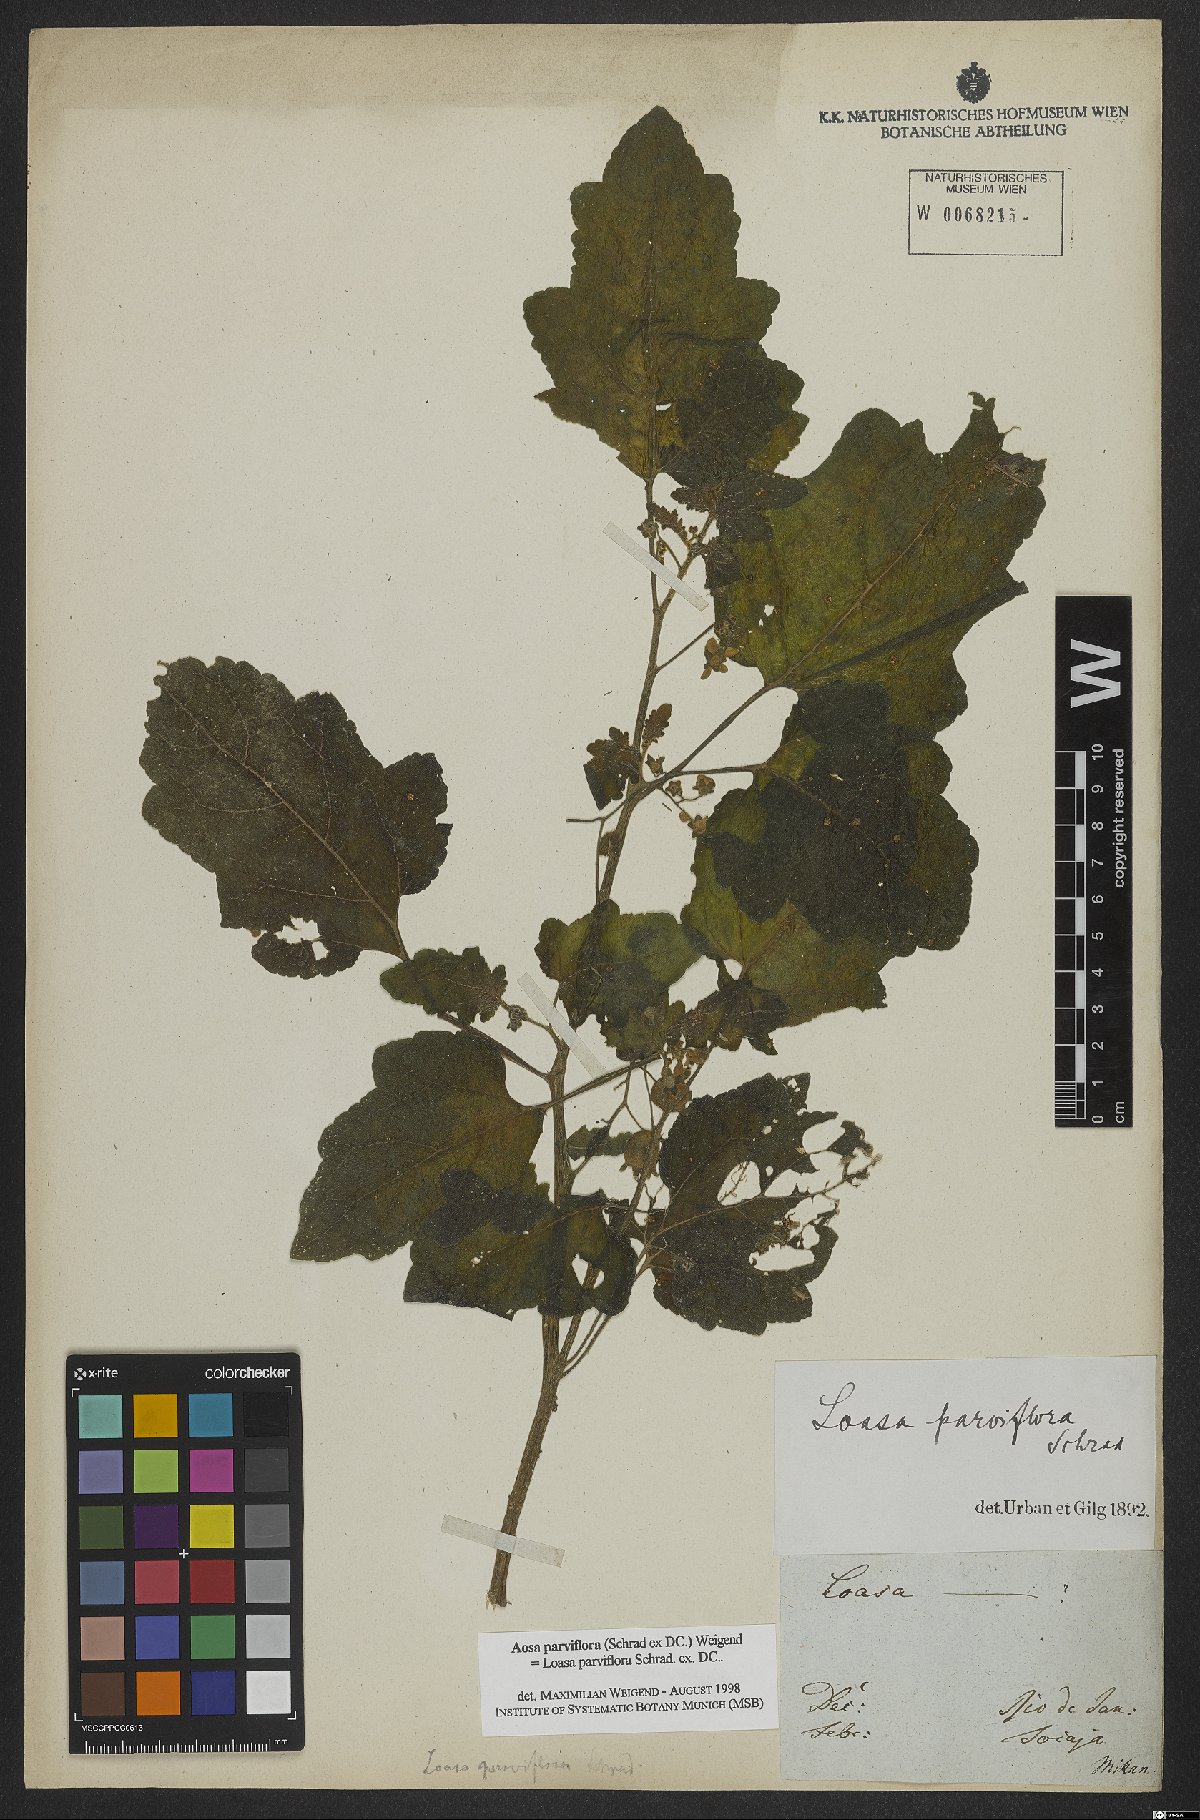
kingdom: Plantae
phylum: Tracheophyta
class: Magnoliopsida
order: Cornales
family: Loasaceae
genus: Aosa
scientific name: Aosa parviflora
